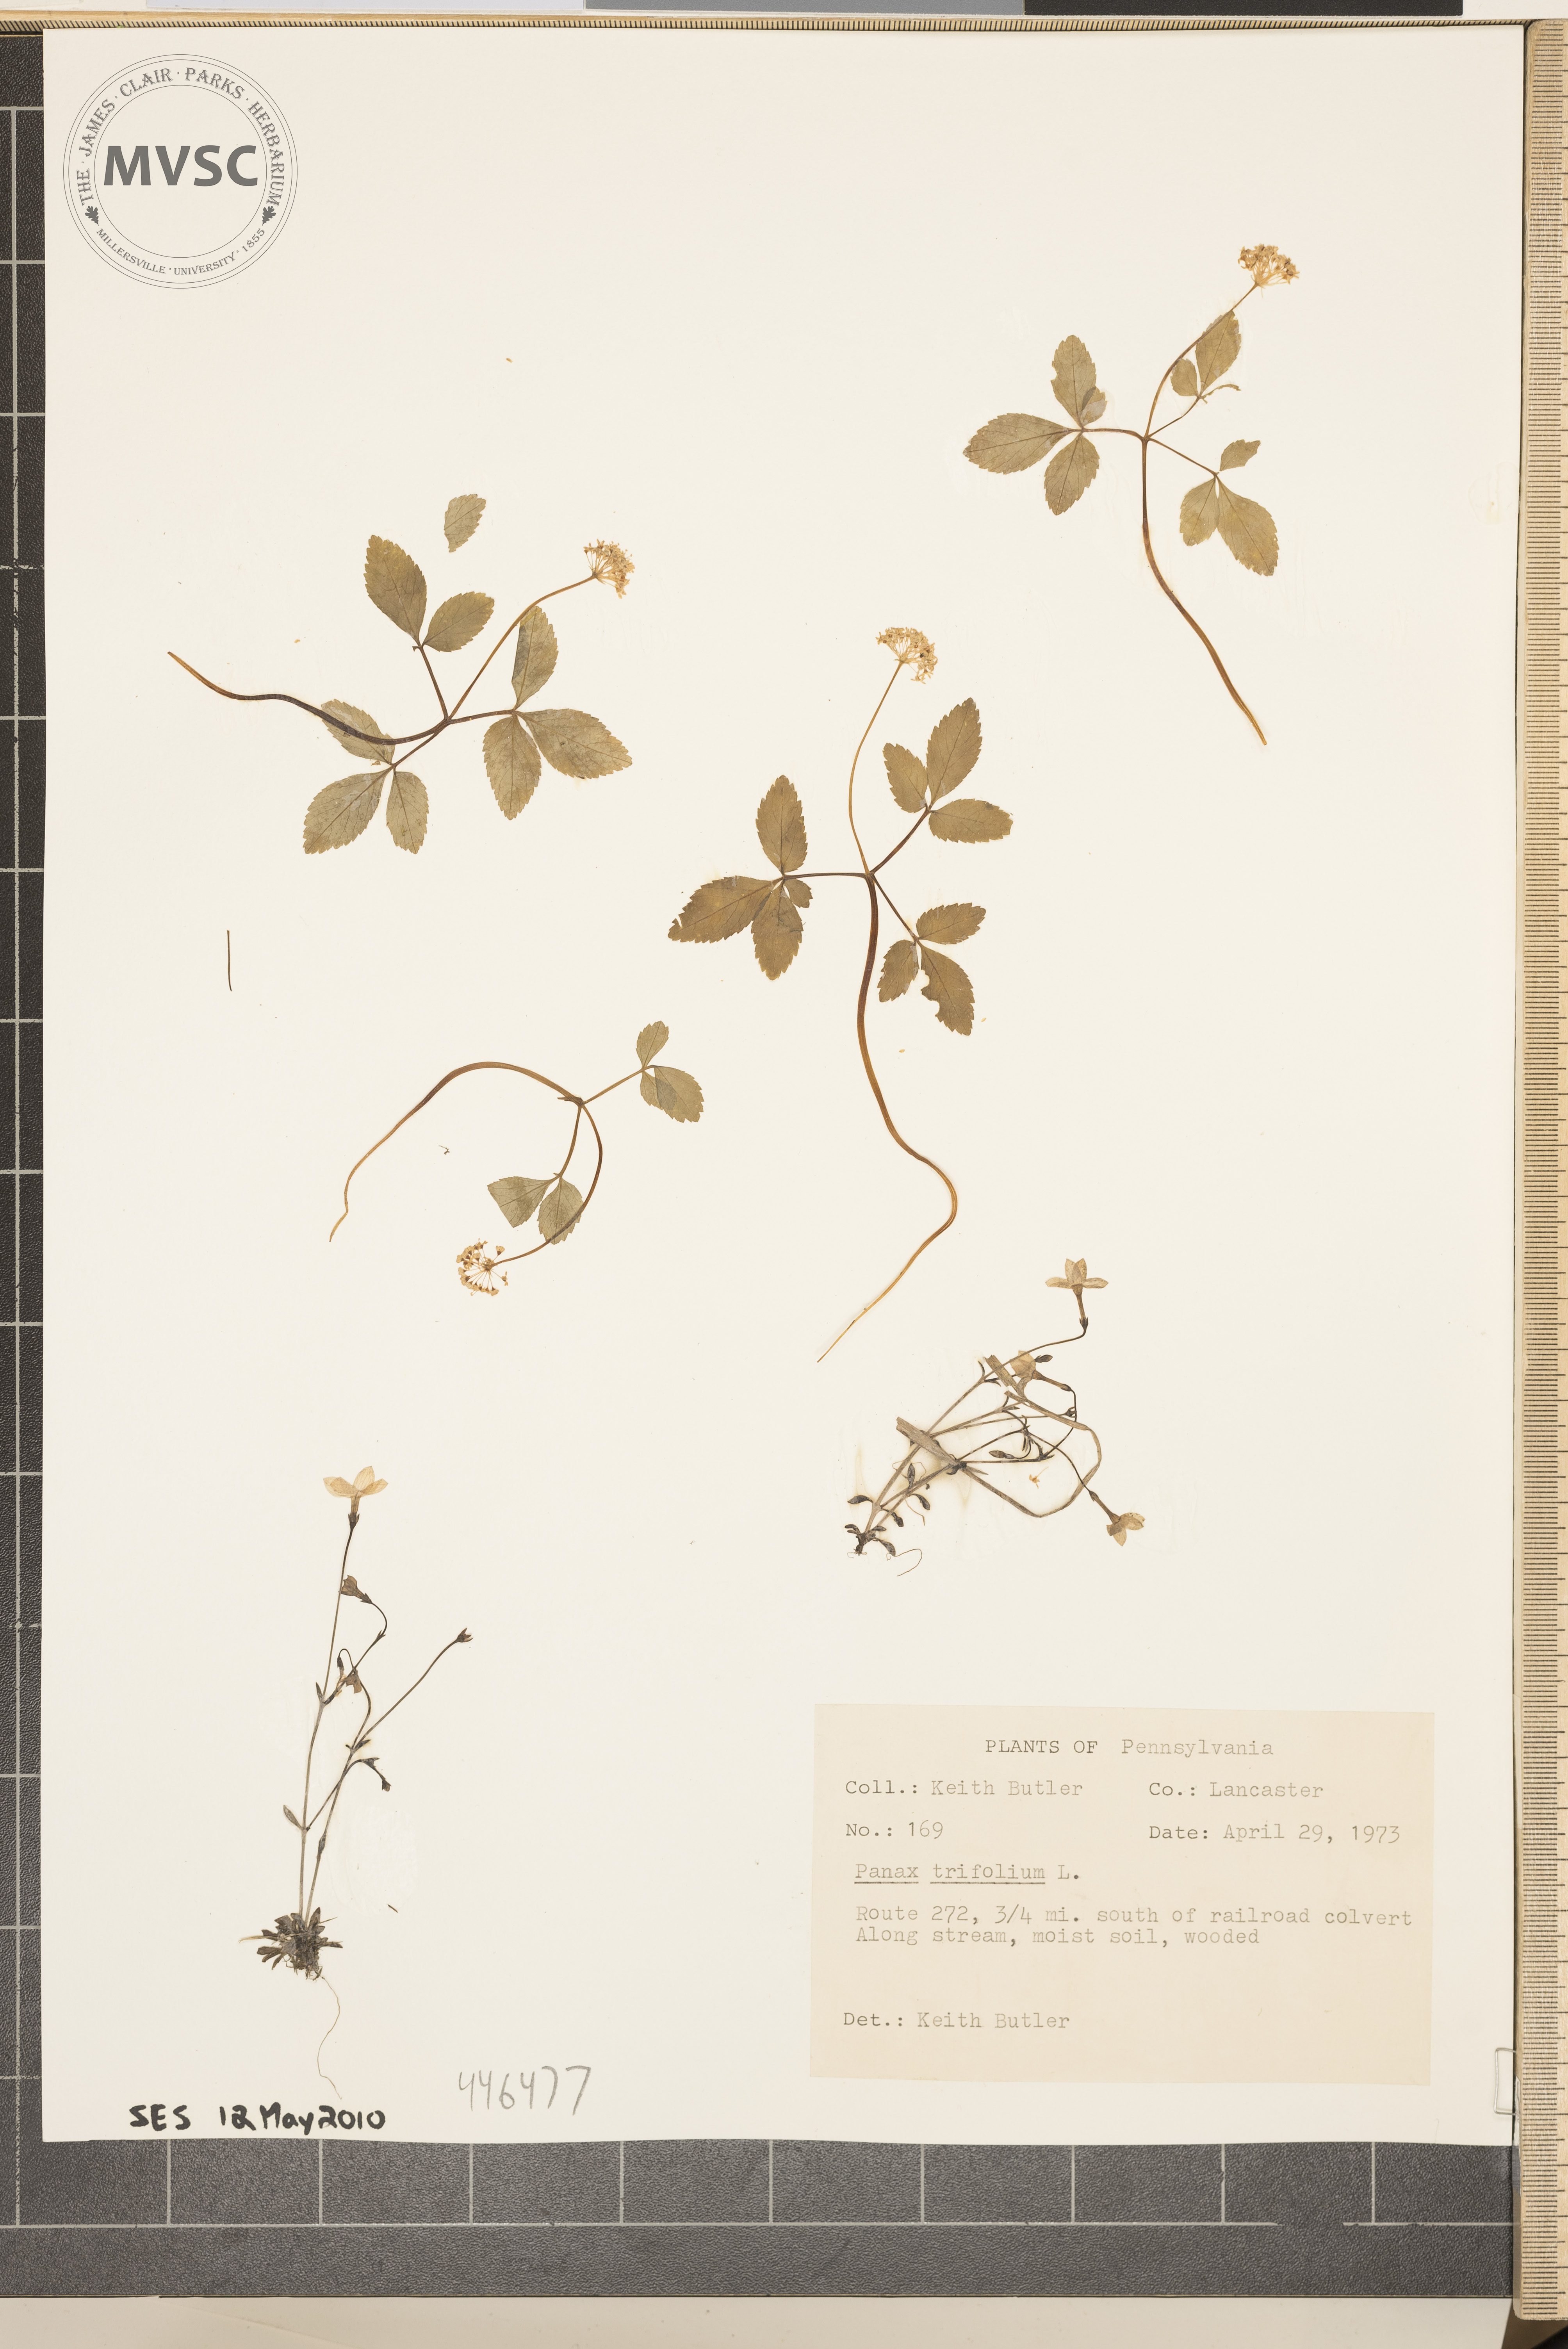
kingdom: Plantae
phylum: Tracheophyta
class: Magnoliopsida
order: Apiales
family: Araliaceae
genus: Panax
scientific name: Panax trifolius
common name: Dwarf ginseng
